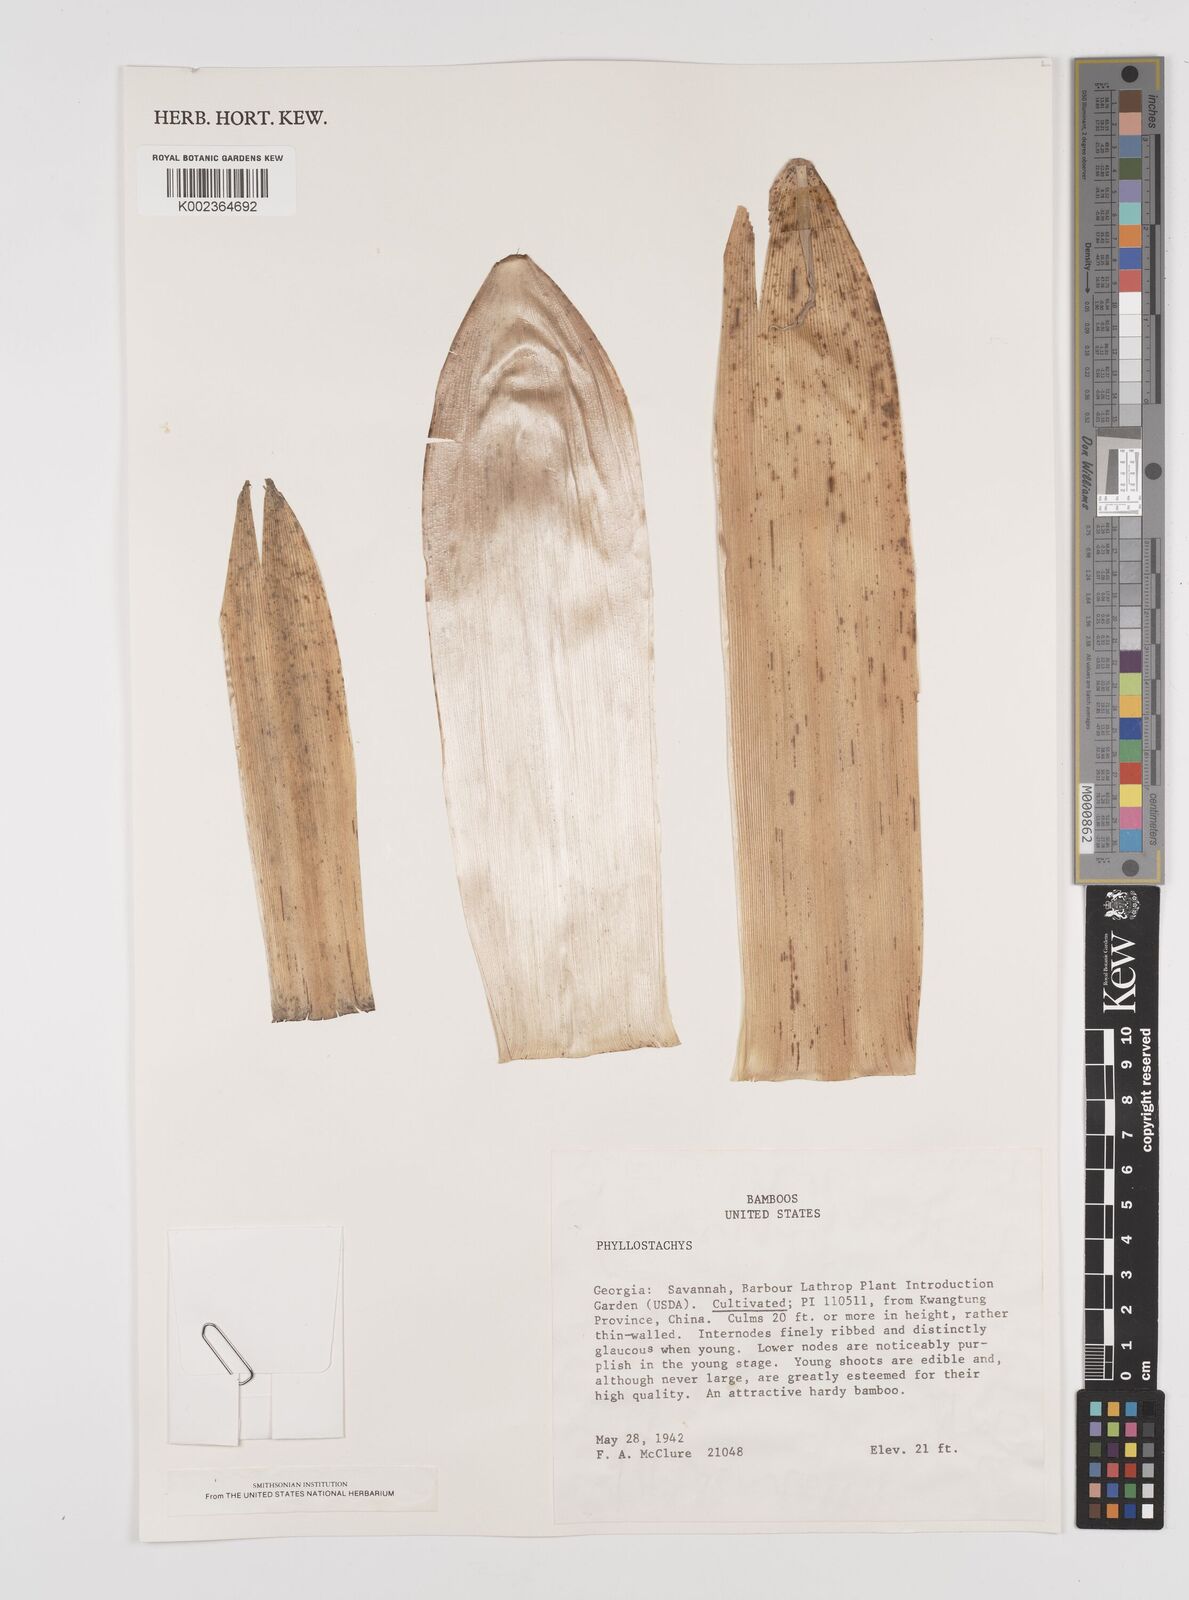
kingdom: Plantae
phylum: Tracheophyta
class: Liliopsida
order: Poales
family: Poaceae
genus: Phyllostachys
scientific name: Phyllostachys
